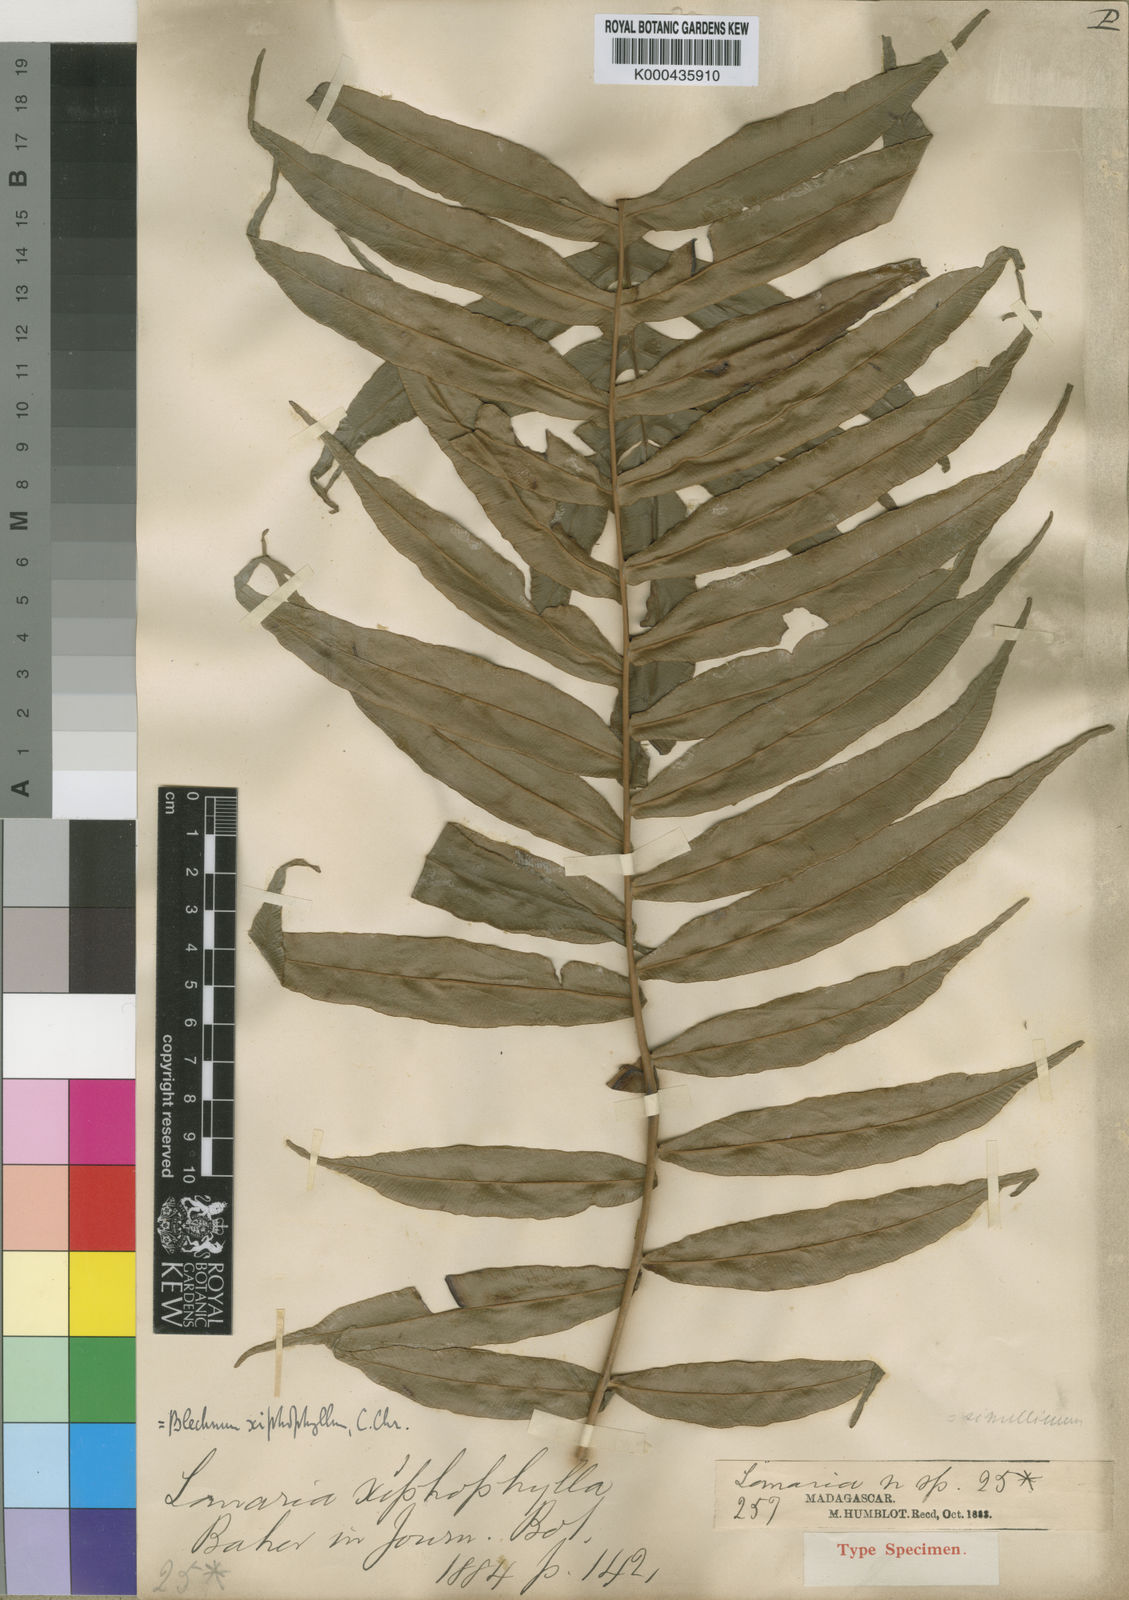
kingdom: Plantae
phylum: Tracheophyta
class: Polypodiopsida
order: Polypodiales
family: Blechnaceae
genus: Lomaridium
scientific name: Lomaridium simillimum
